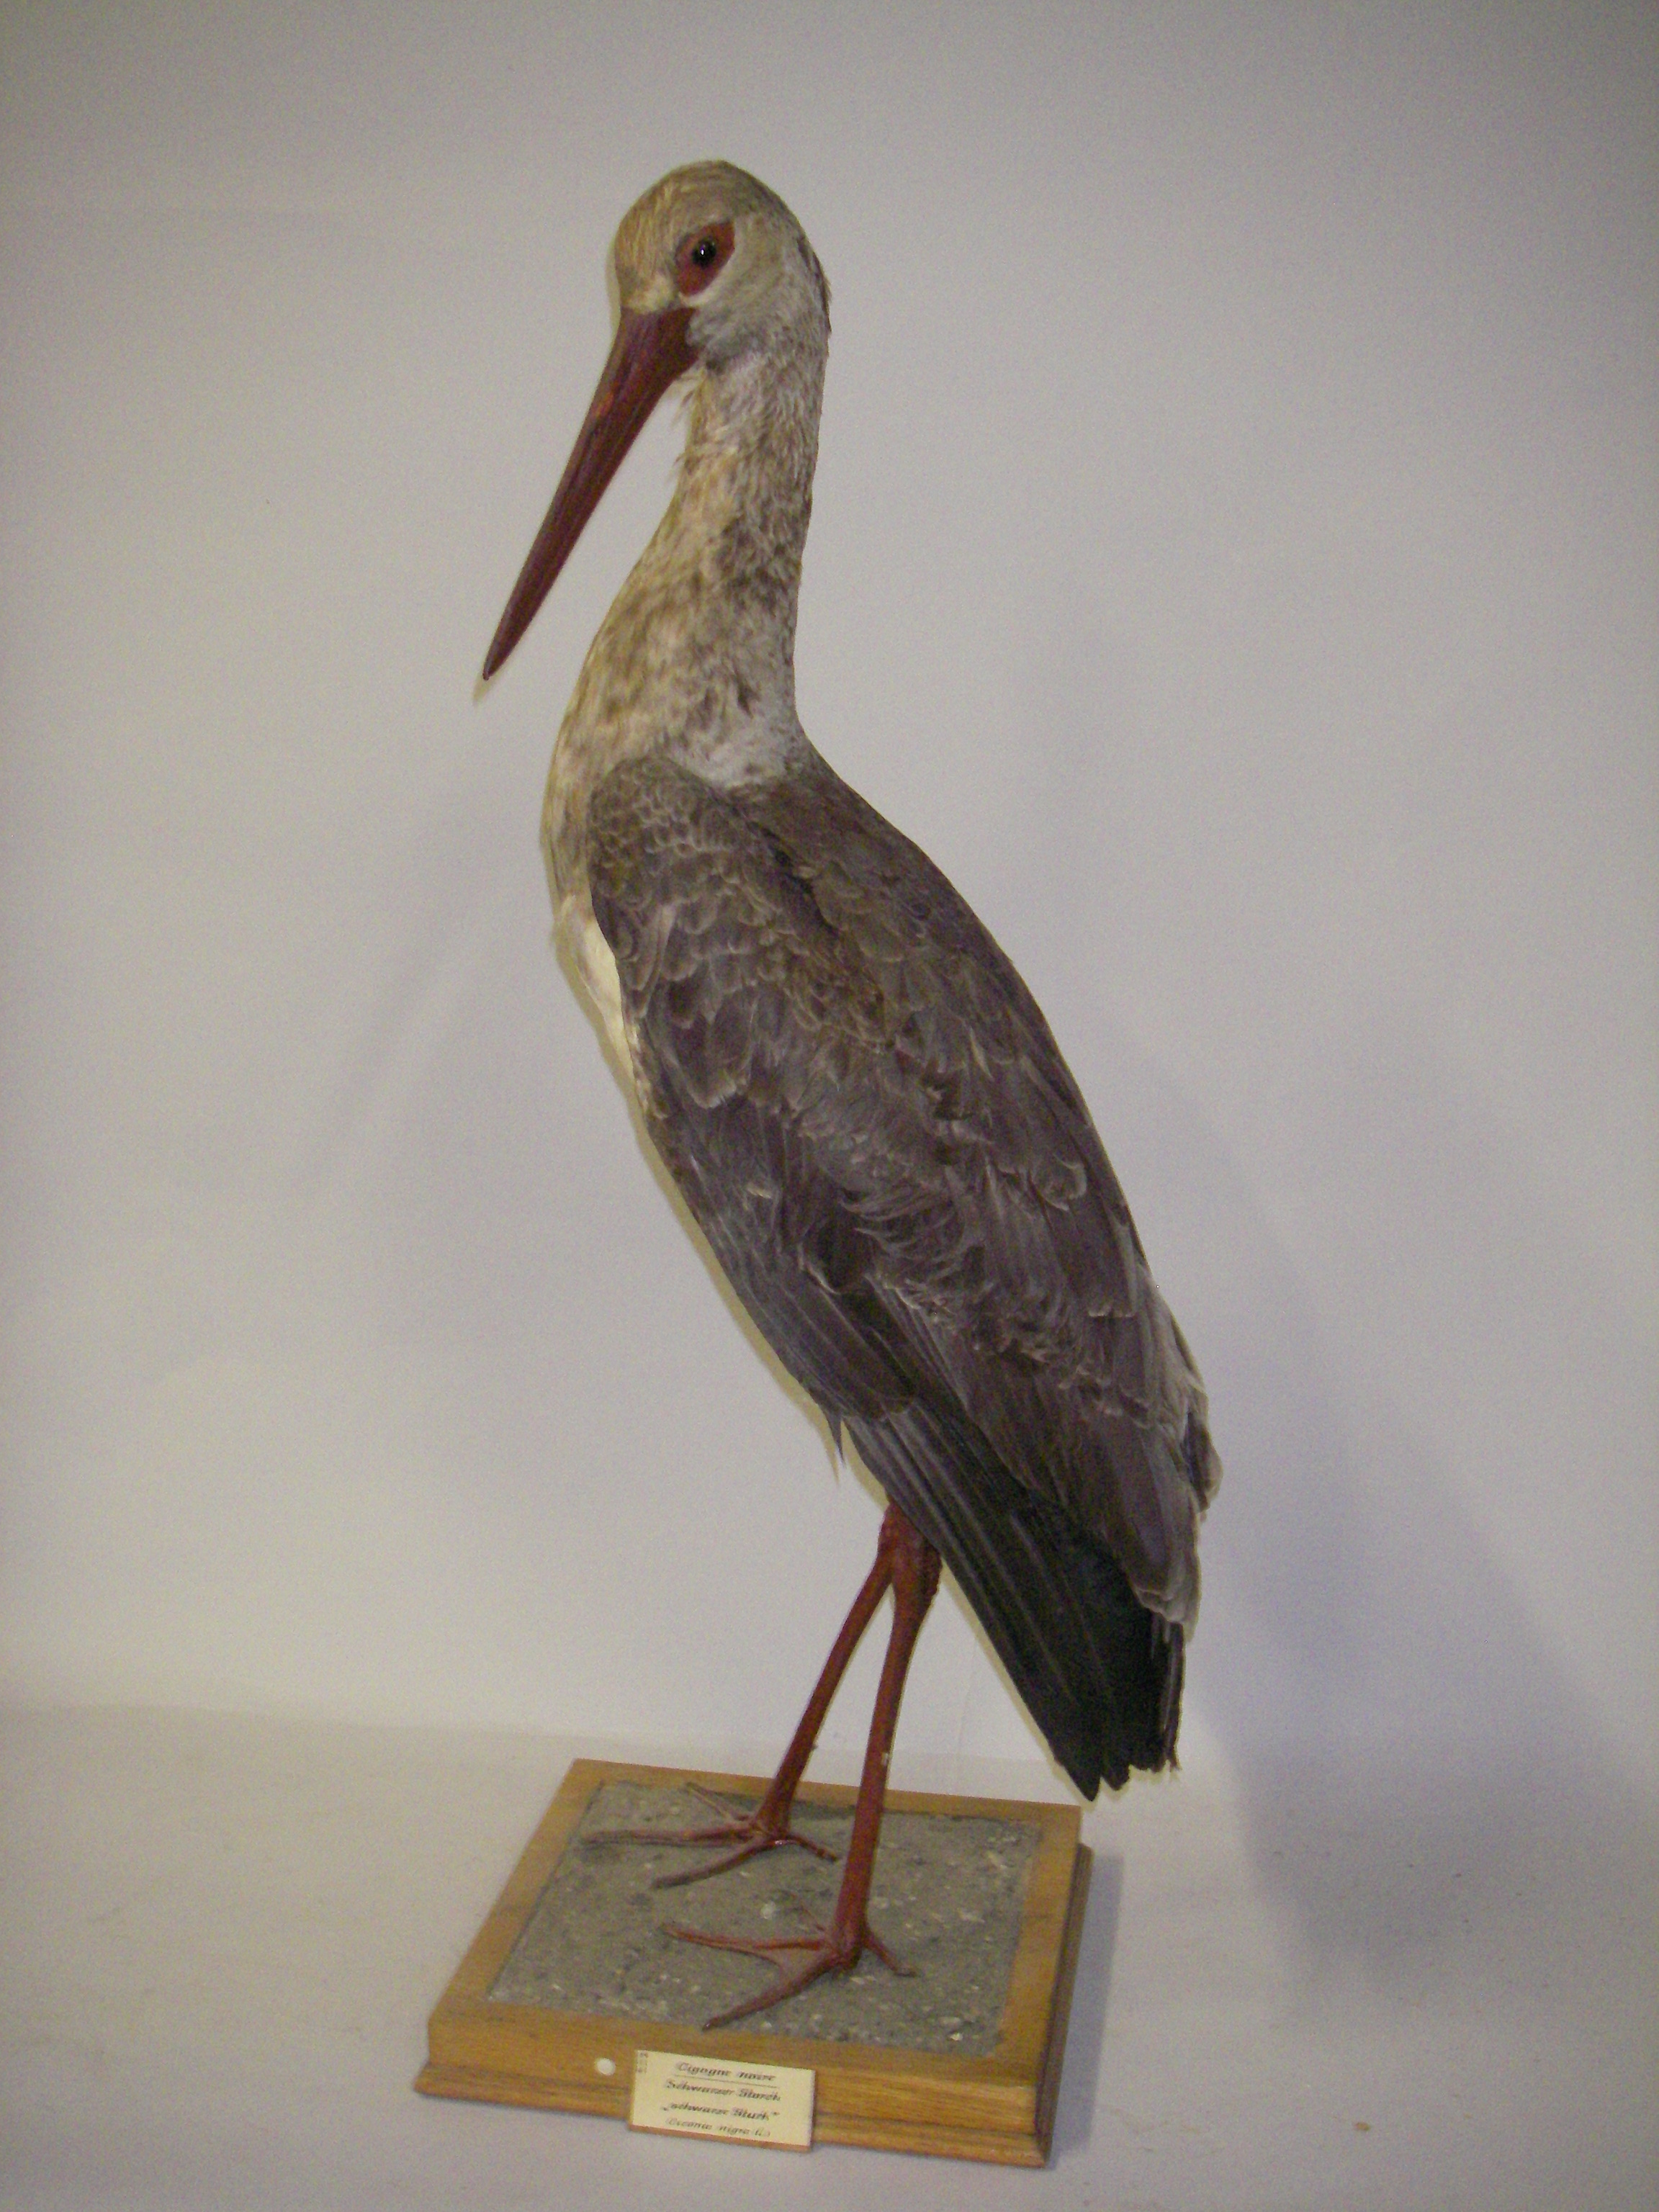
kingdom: Animalia
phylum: Chordata
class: Aves
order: Ciconiiformes
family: Ciconiidae
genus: Ciconia
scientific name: Ciconia nigra
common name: Black stork
